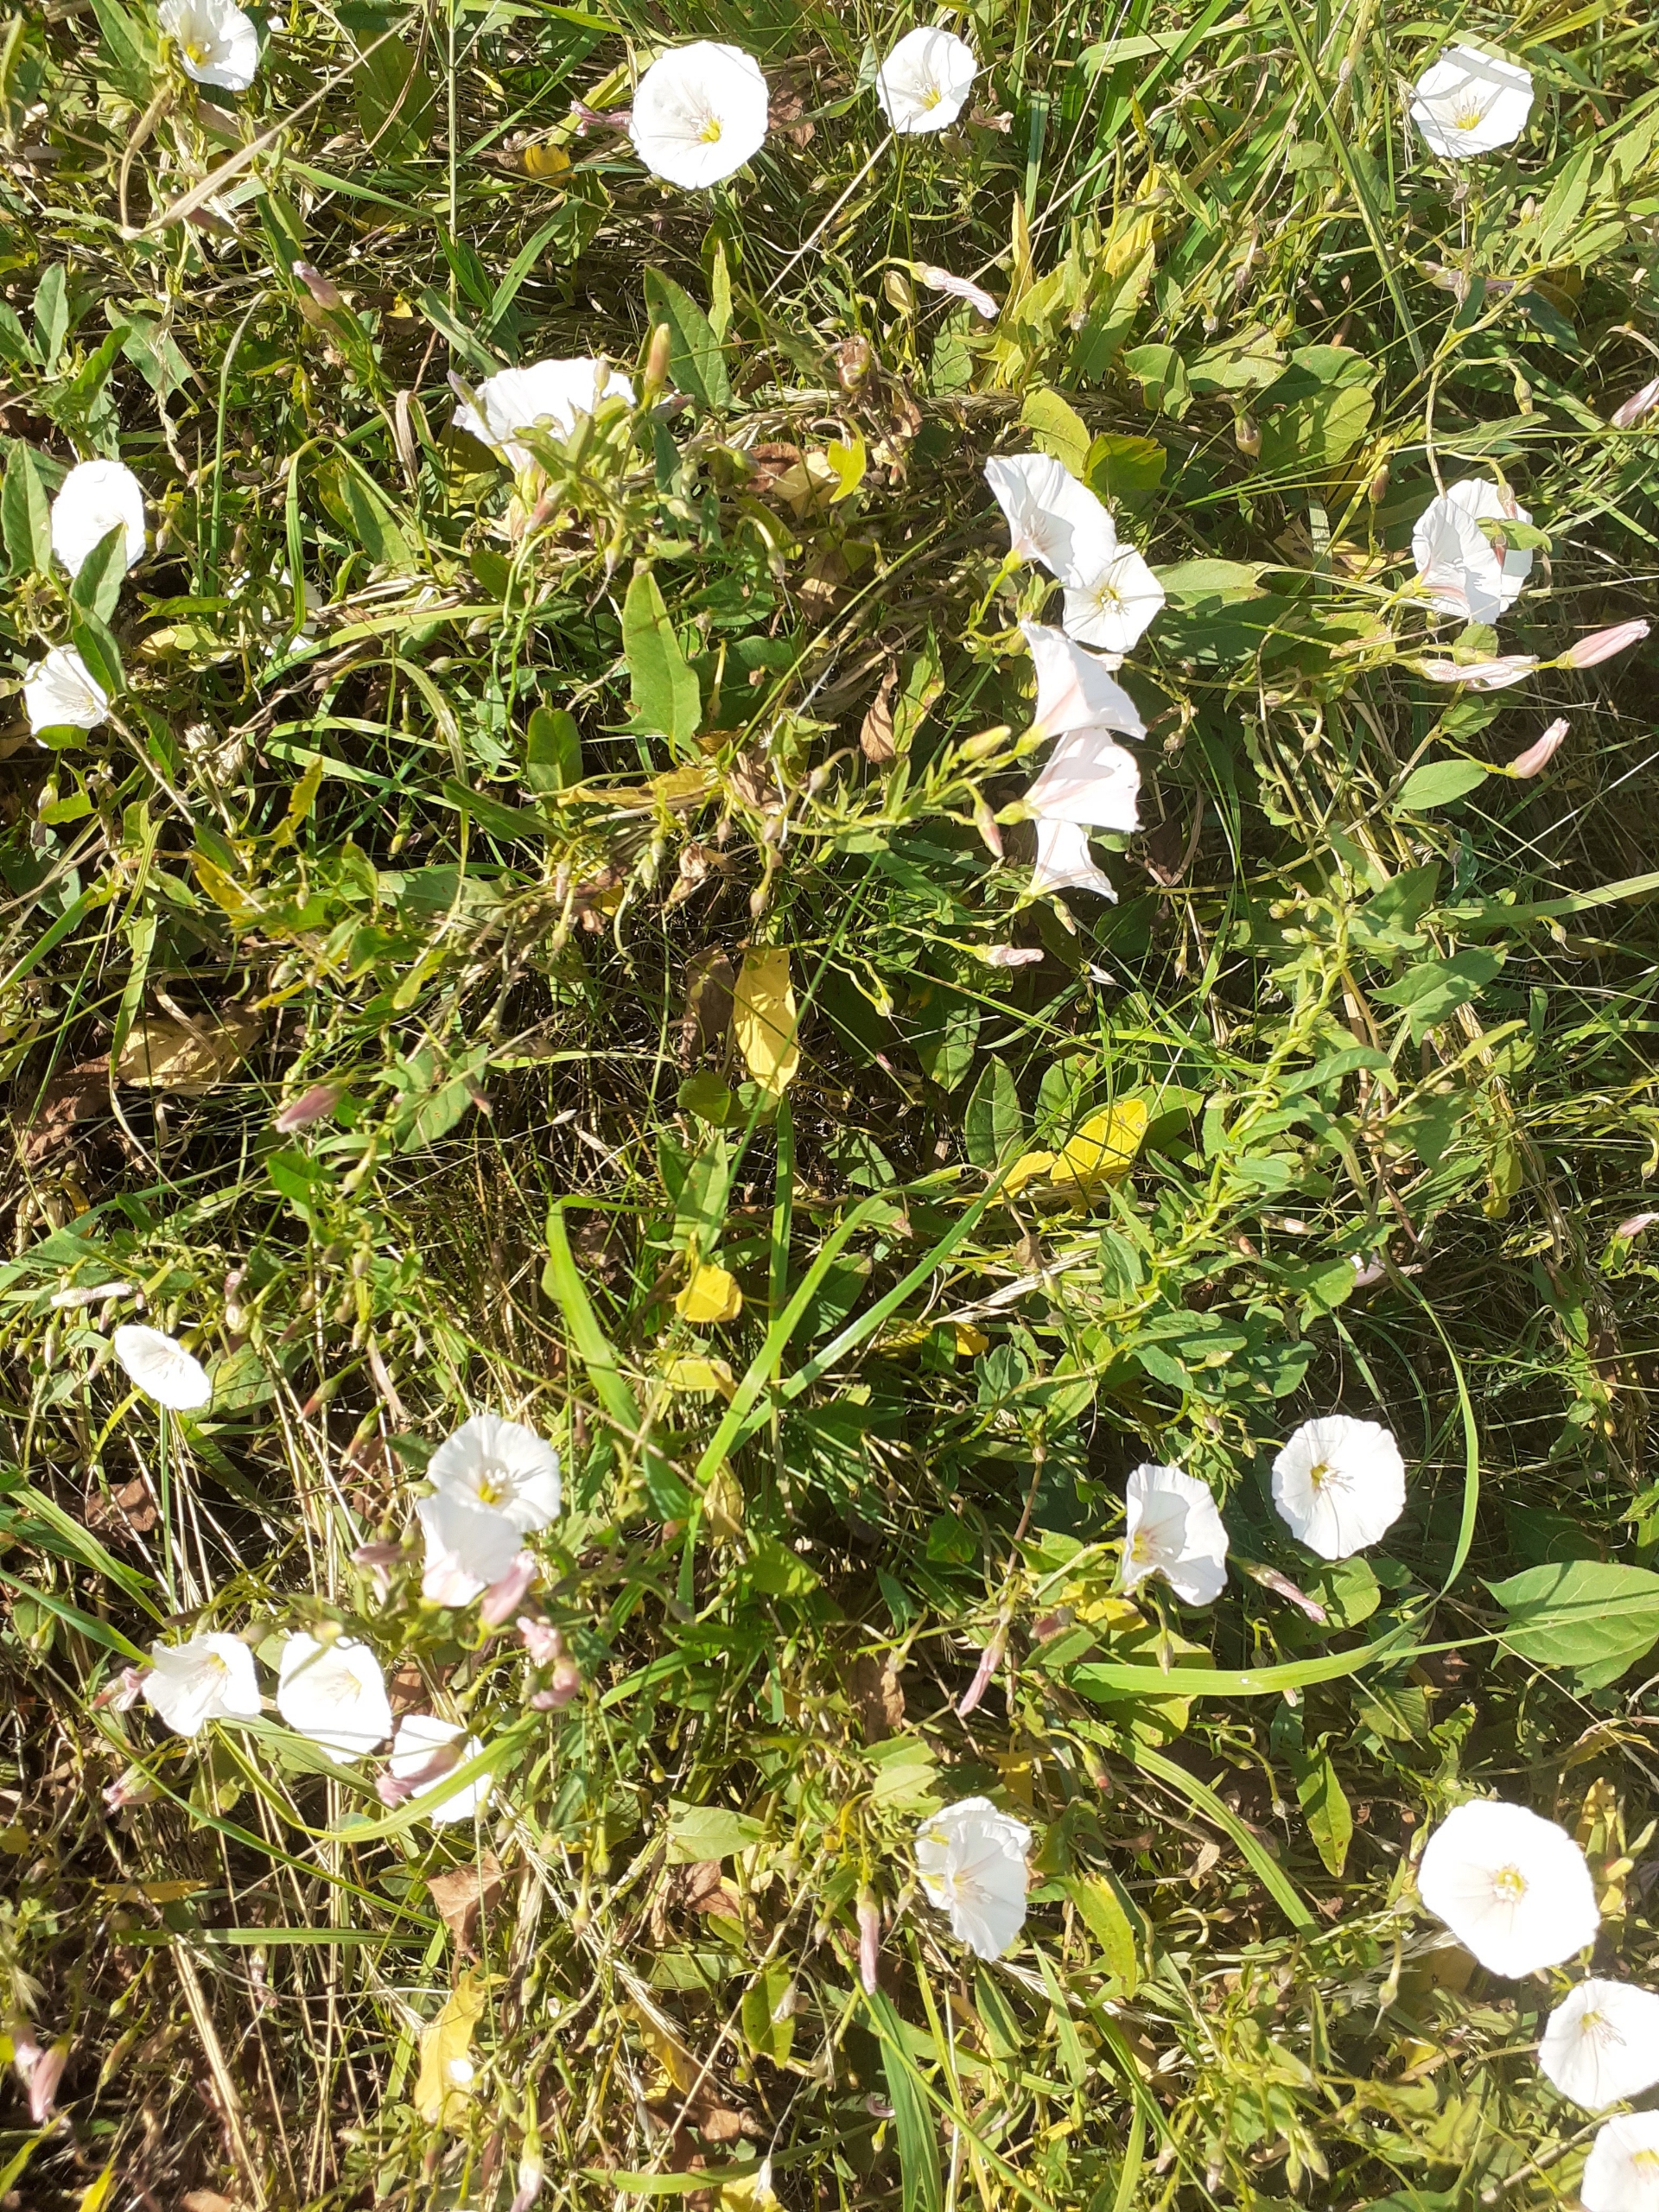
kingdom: Plantae
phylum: Tracheophyta
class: Magnoliopsida
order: Solanales
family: Convolvulaceae
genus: Convolvulus
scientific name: Convolvulus arvensis
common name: Ager-snerle
